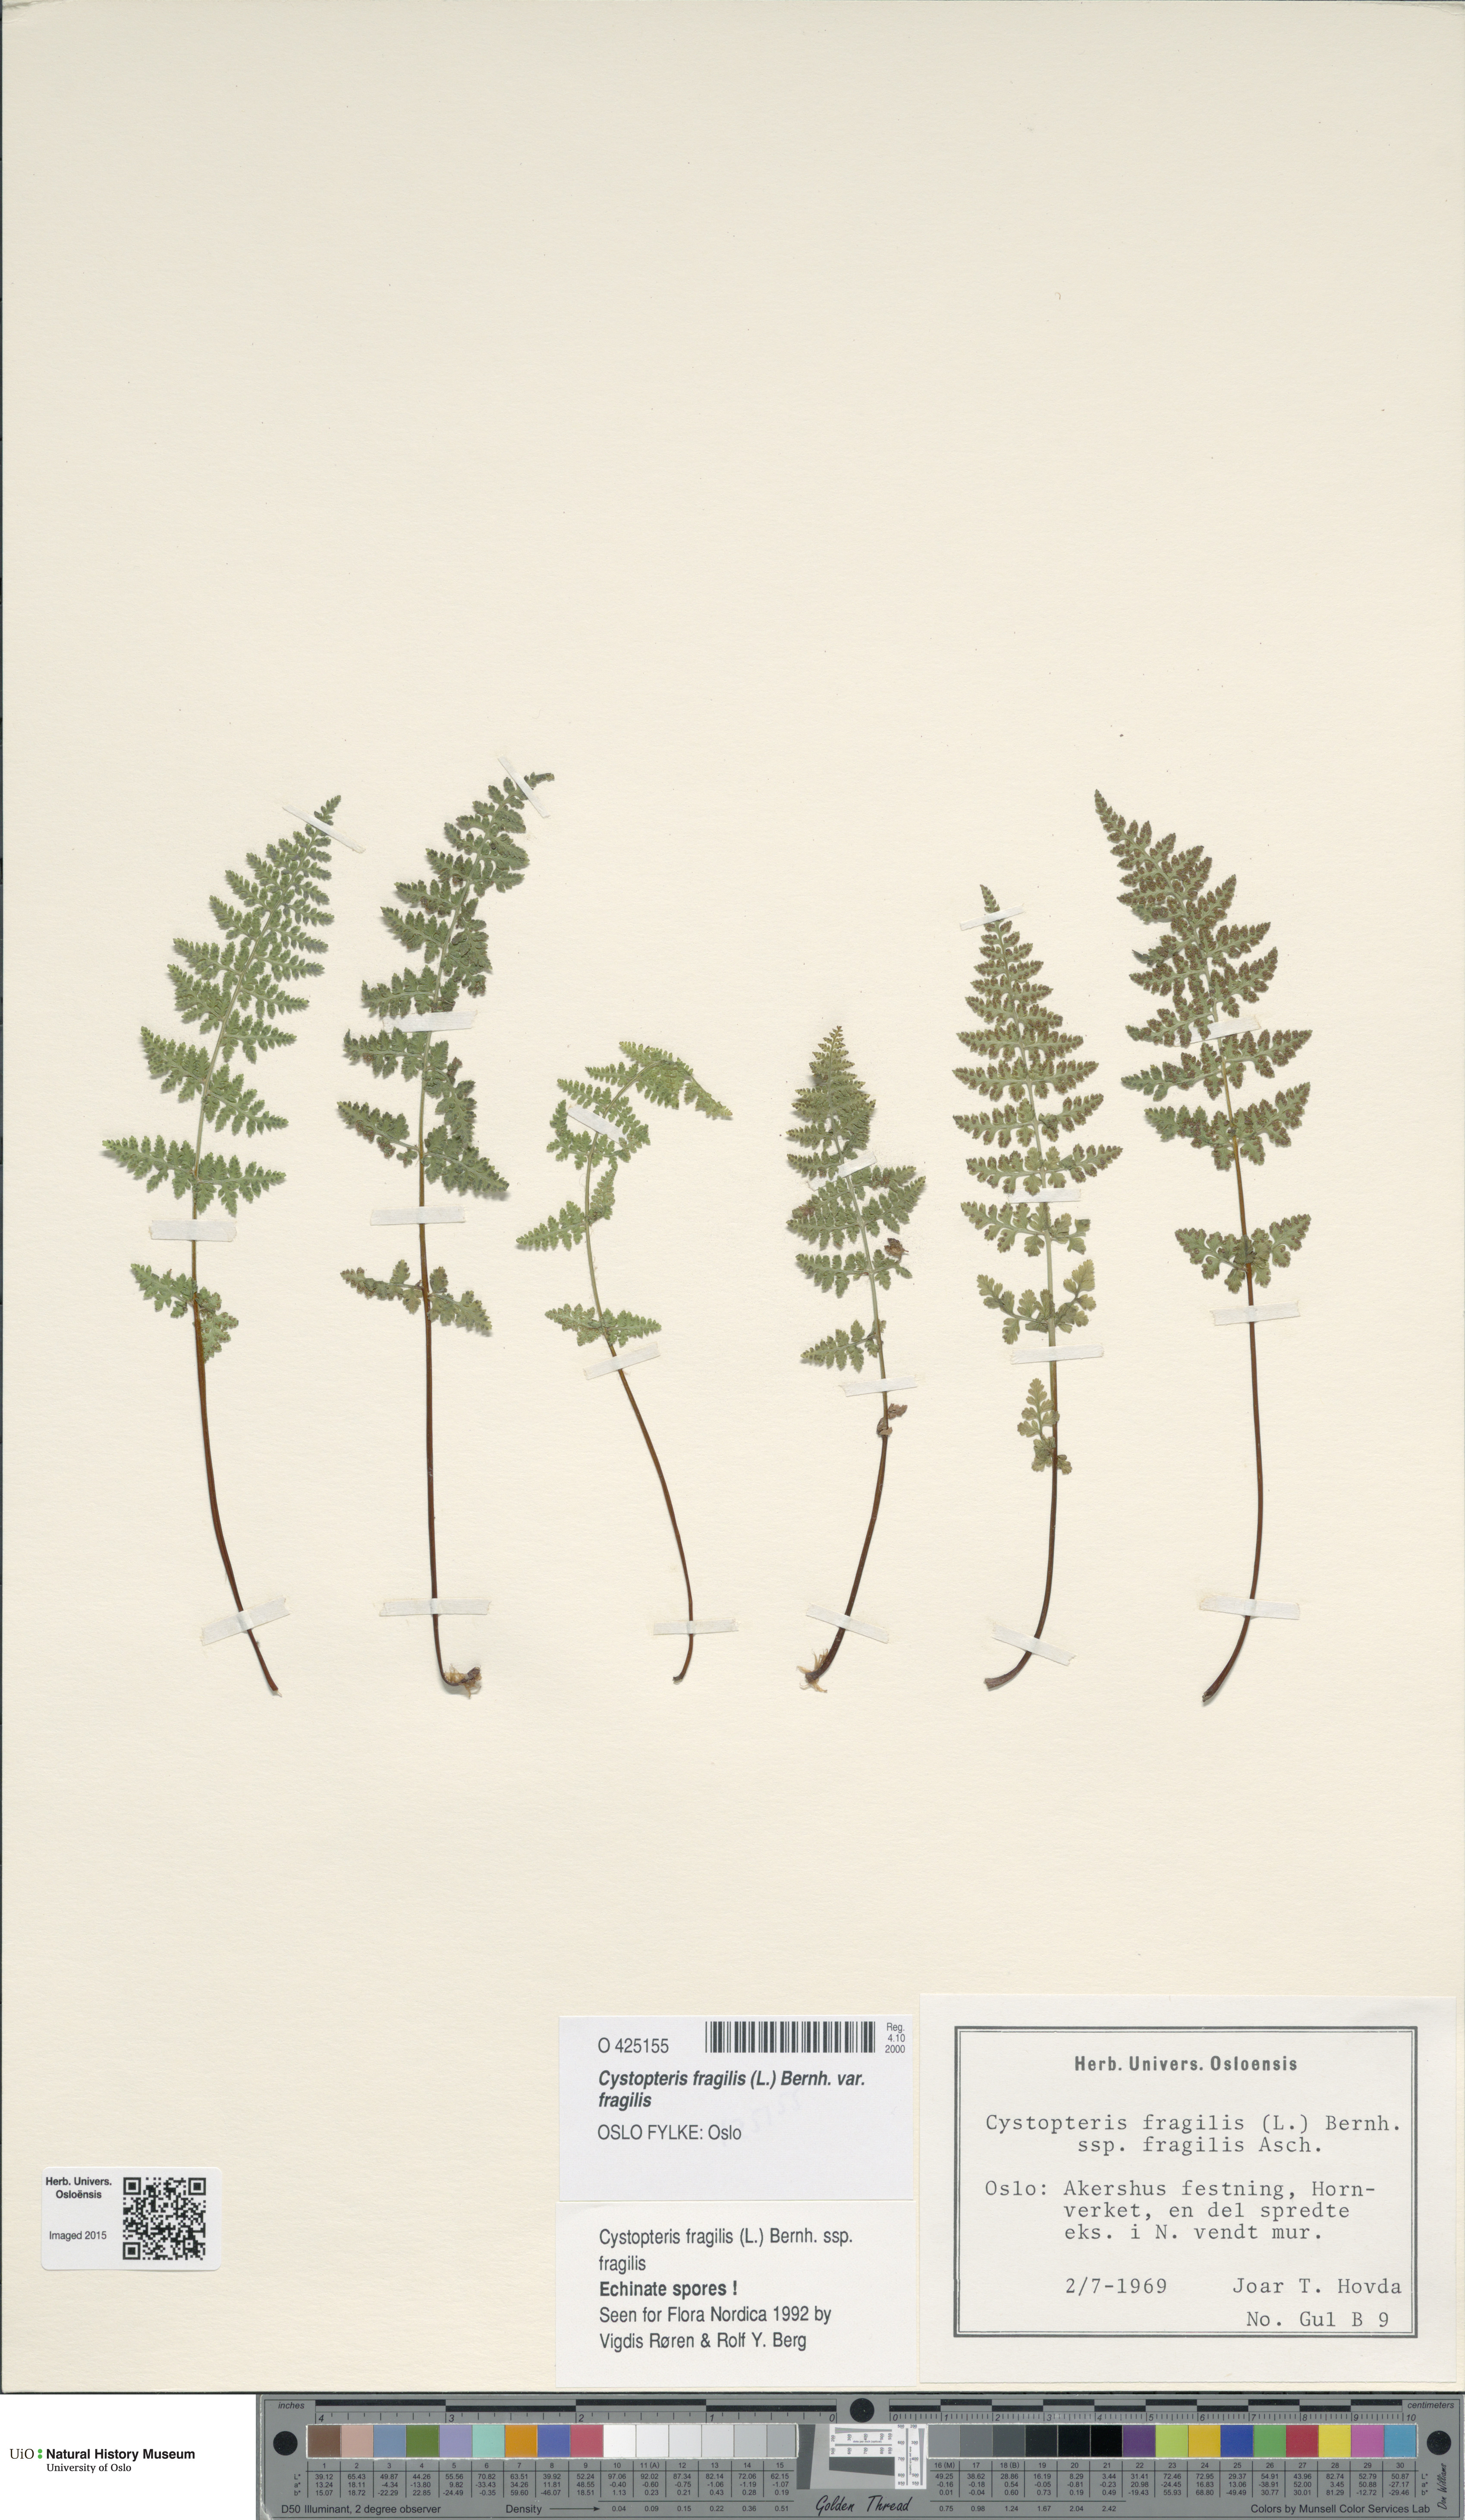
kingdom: Plantae
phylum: Tracheophyta
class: Polypodiopsida
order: Polypodiales
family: Cystopteridaceae
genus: Cystopteris
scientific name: Cystopteris fragilis
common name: Brittle bladder fern
